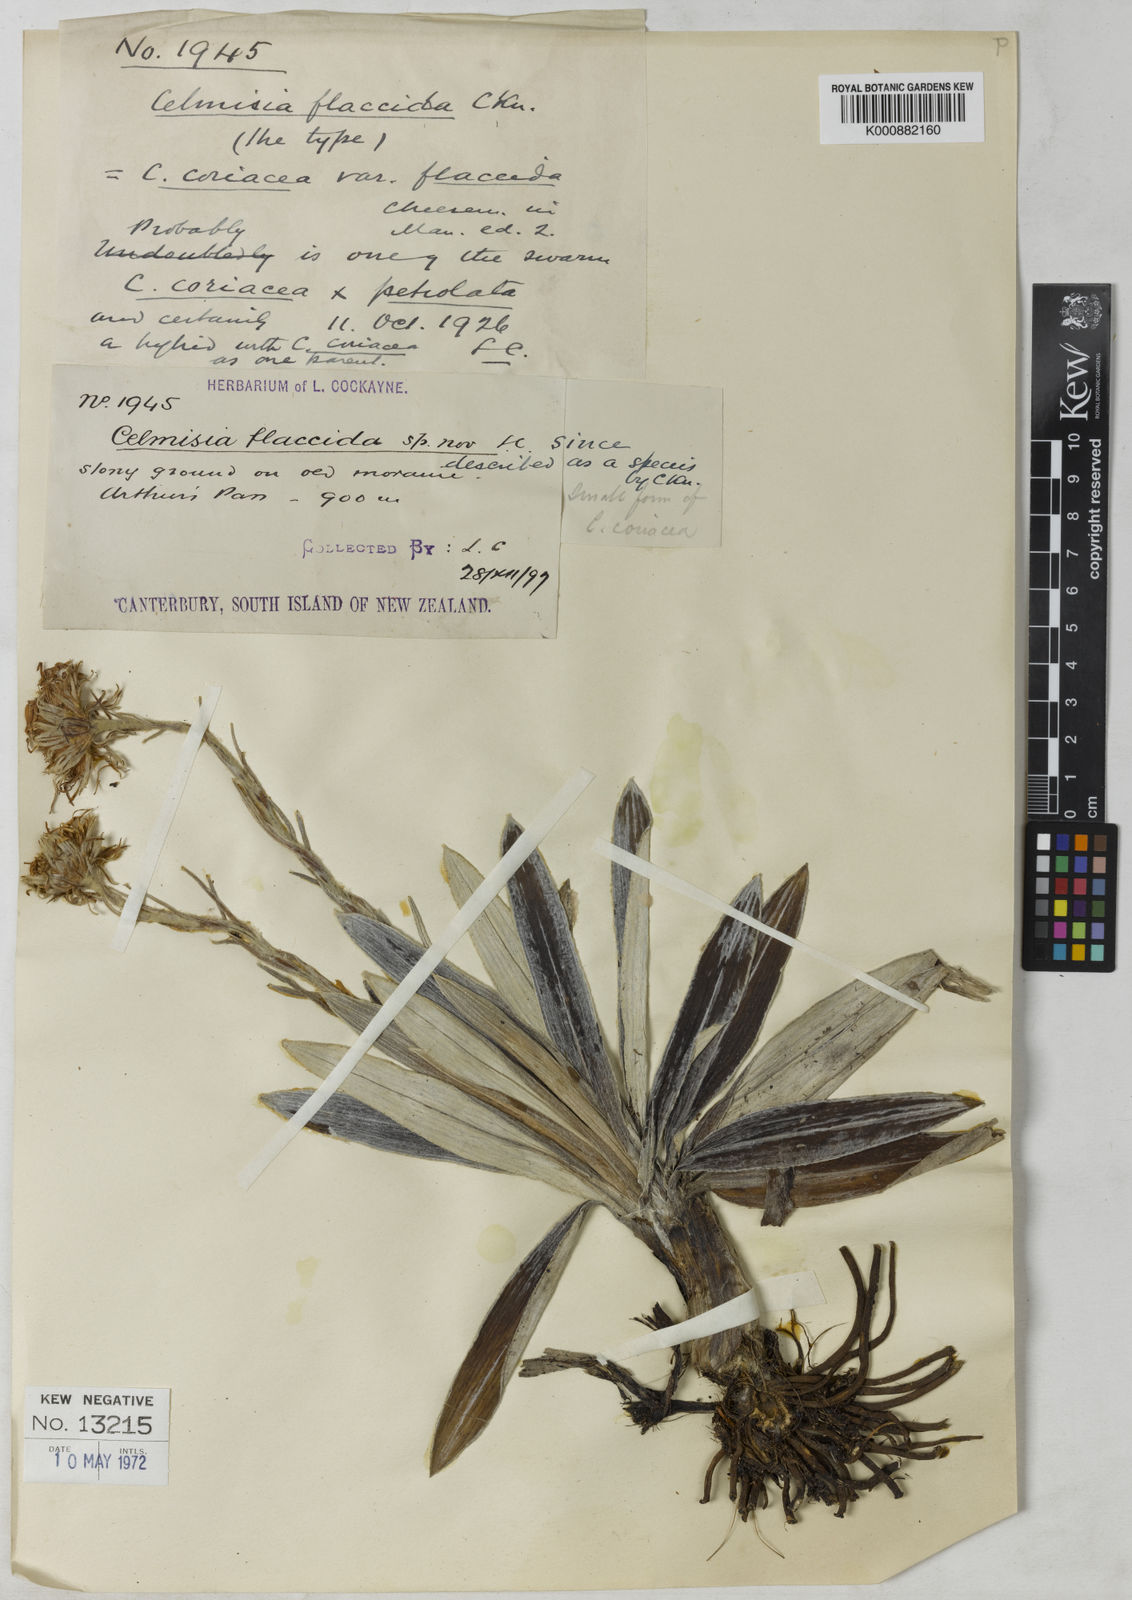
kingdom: Plantae
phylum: Tracheophyta
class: Magnoliopsida
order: Asterales
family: Asteraceae
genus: Celmisia
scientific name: Celmisia coriacea
